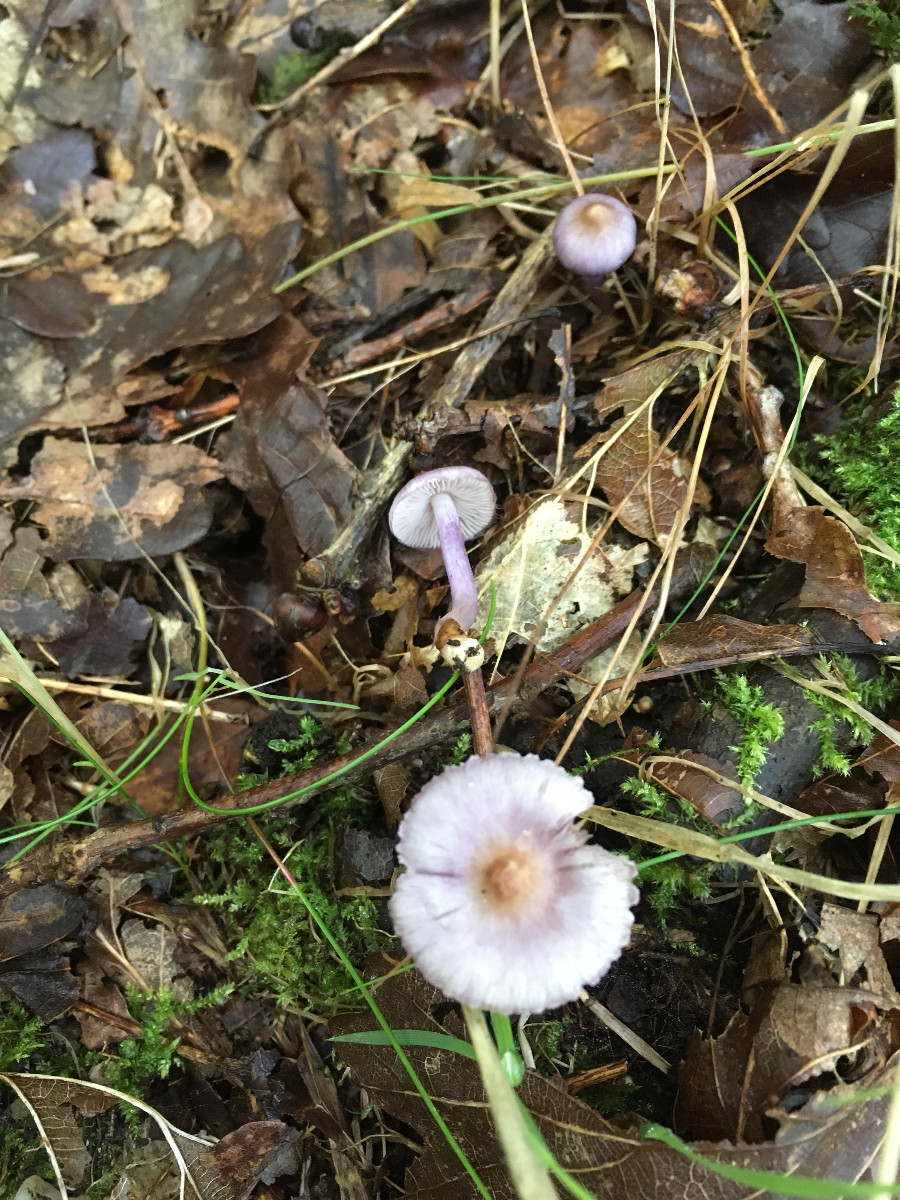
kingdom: Fungi
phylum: Basidiomycota
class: Agaricomycetes
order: Agaricales
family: Inocybaceae
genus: Inocybe
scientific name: Inocybe geophylla
